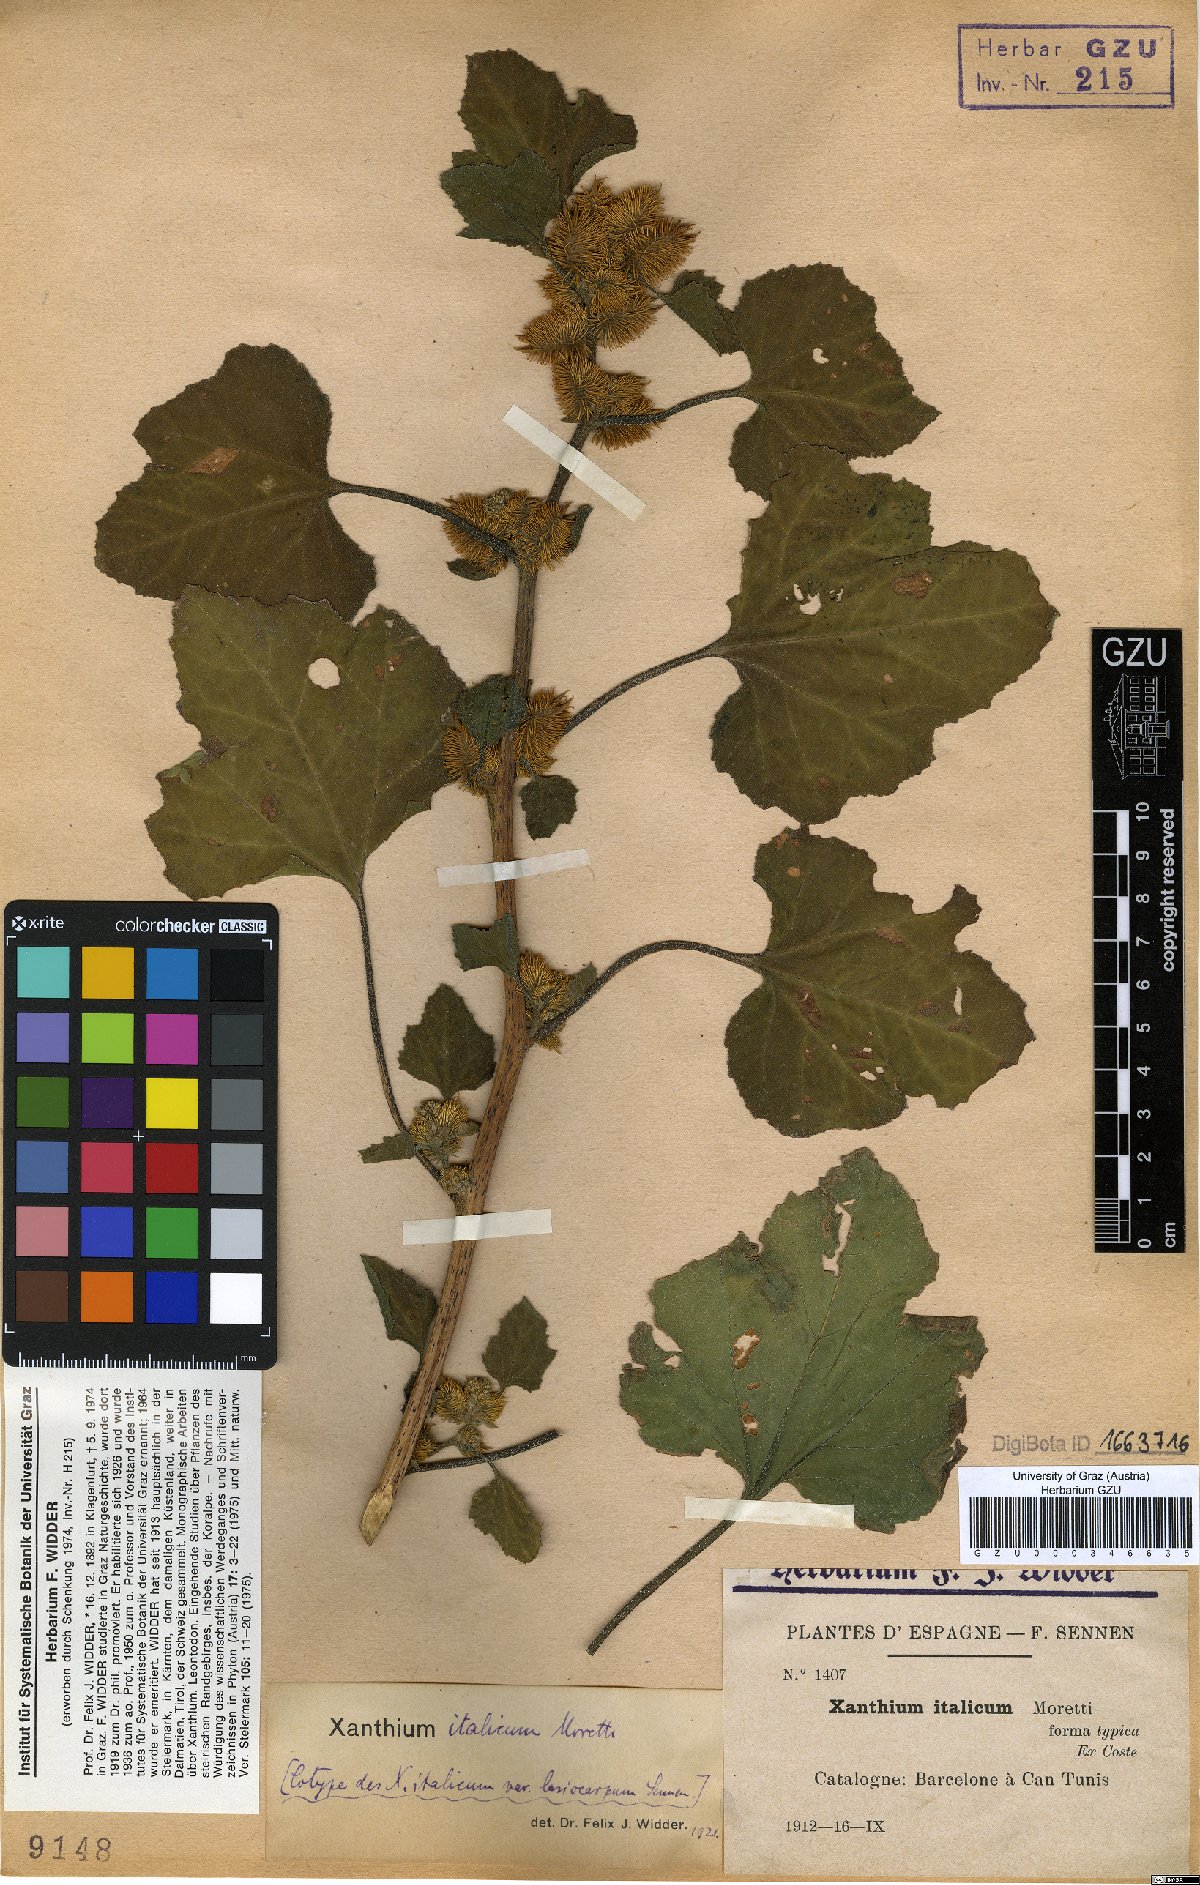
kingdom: Plantae
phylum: Tracheophyta
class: Magnoliopsida
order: Asterales
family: Asteraceae
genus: Xanthium
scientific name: Xanthium orientale
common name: Californian burr
